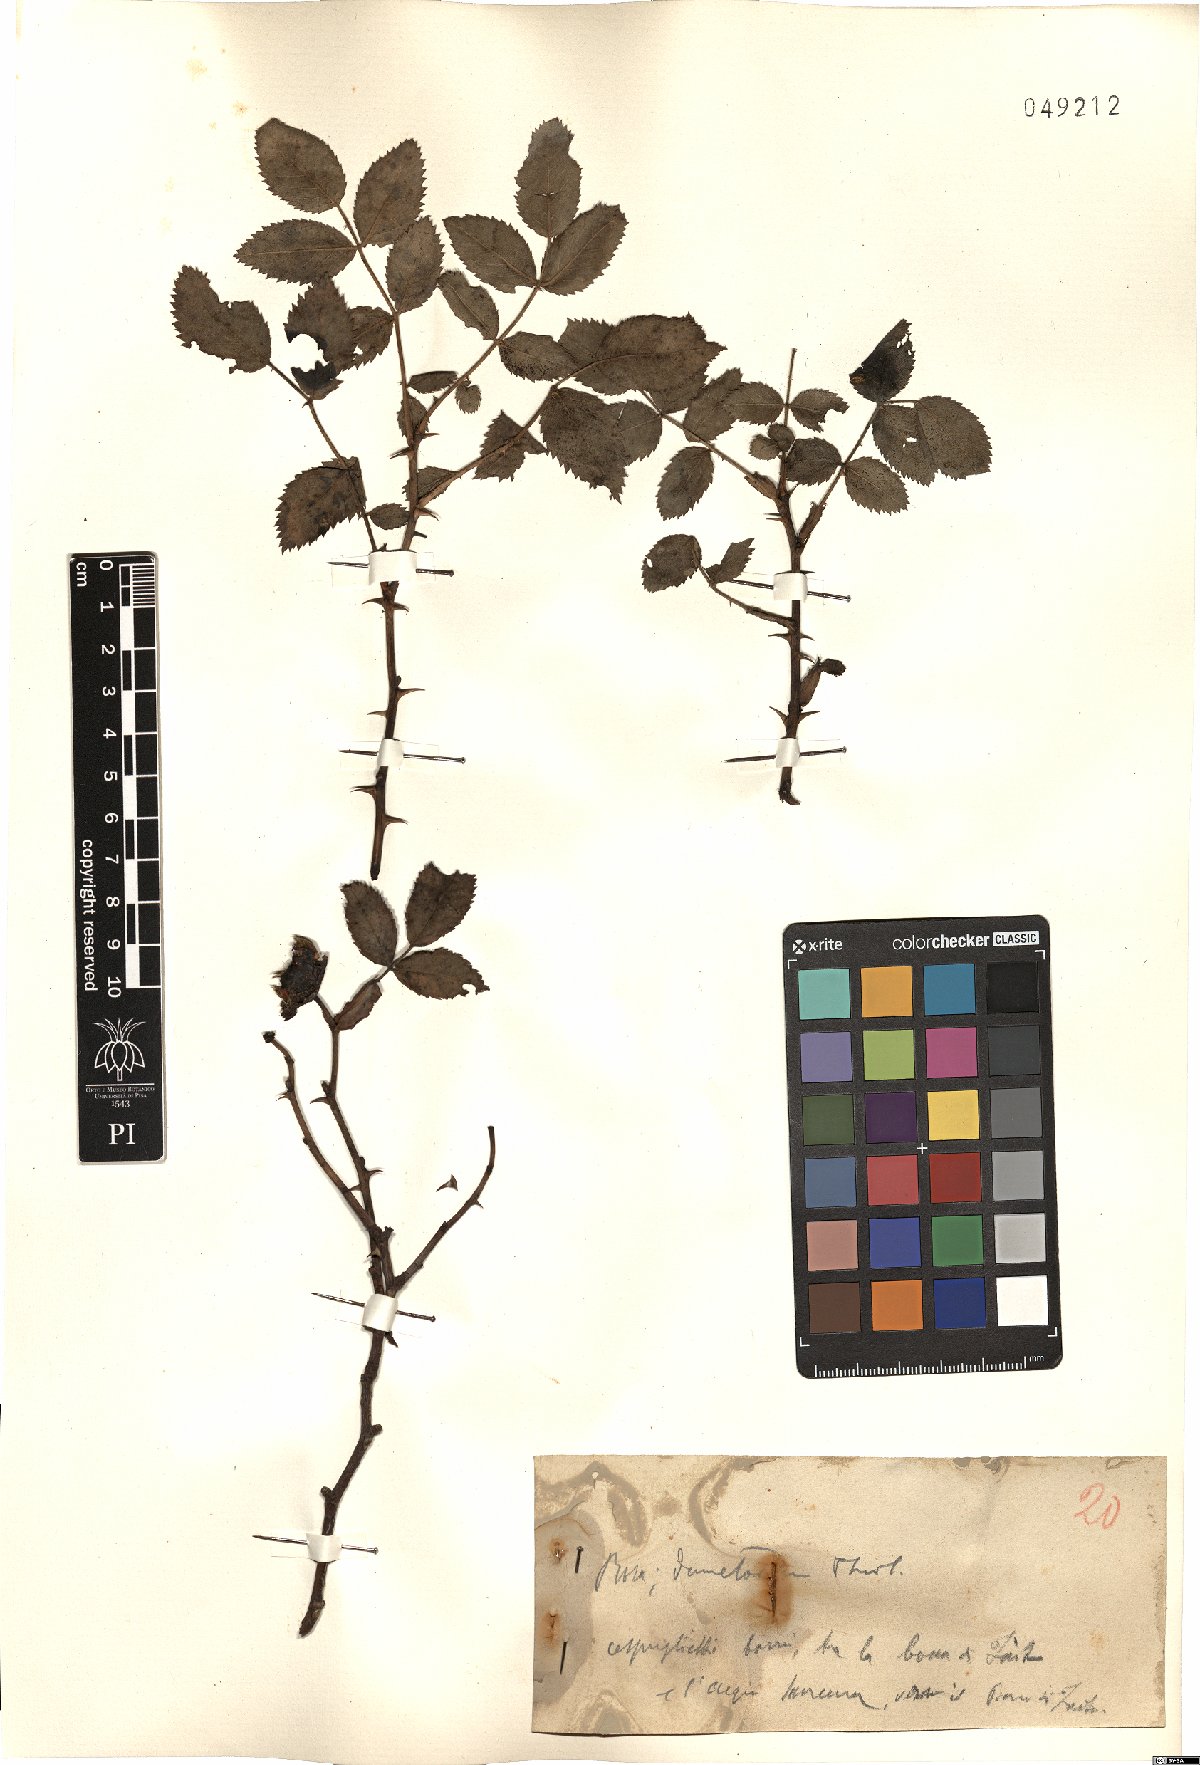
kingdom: Plantae
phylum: Tracheophyta
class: Magnoliopsida
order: Rosales
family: Rosaceae
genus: Rosa
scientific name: Rosa corymbifera
